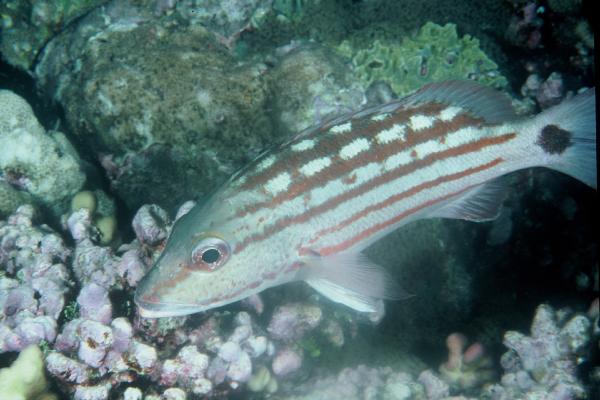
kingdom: Animalia
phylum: Chordata
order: Perciformes
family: Lutjanidae
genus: Lutjanus
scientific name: Lutjanus decussatus
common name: Checkered snapper
